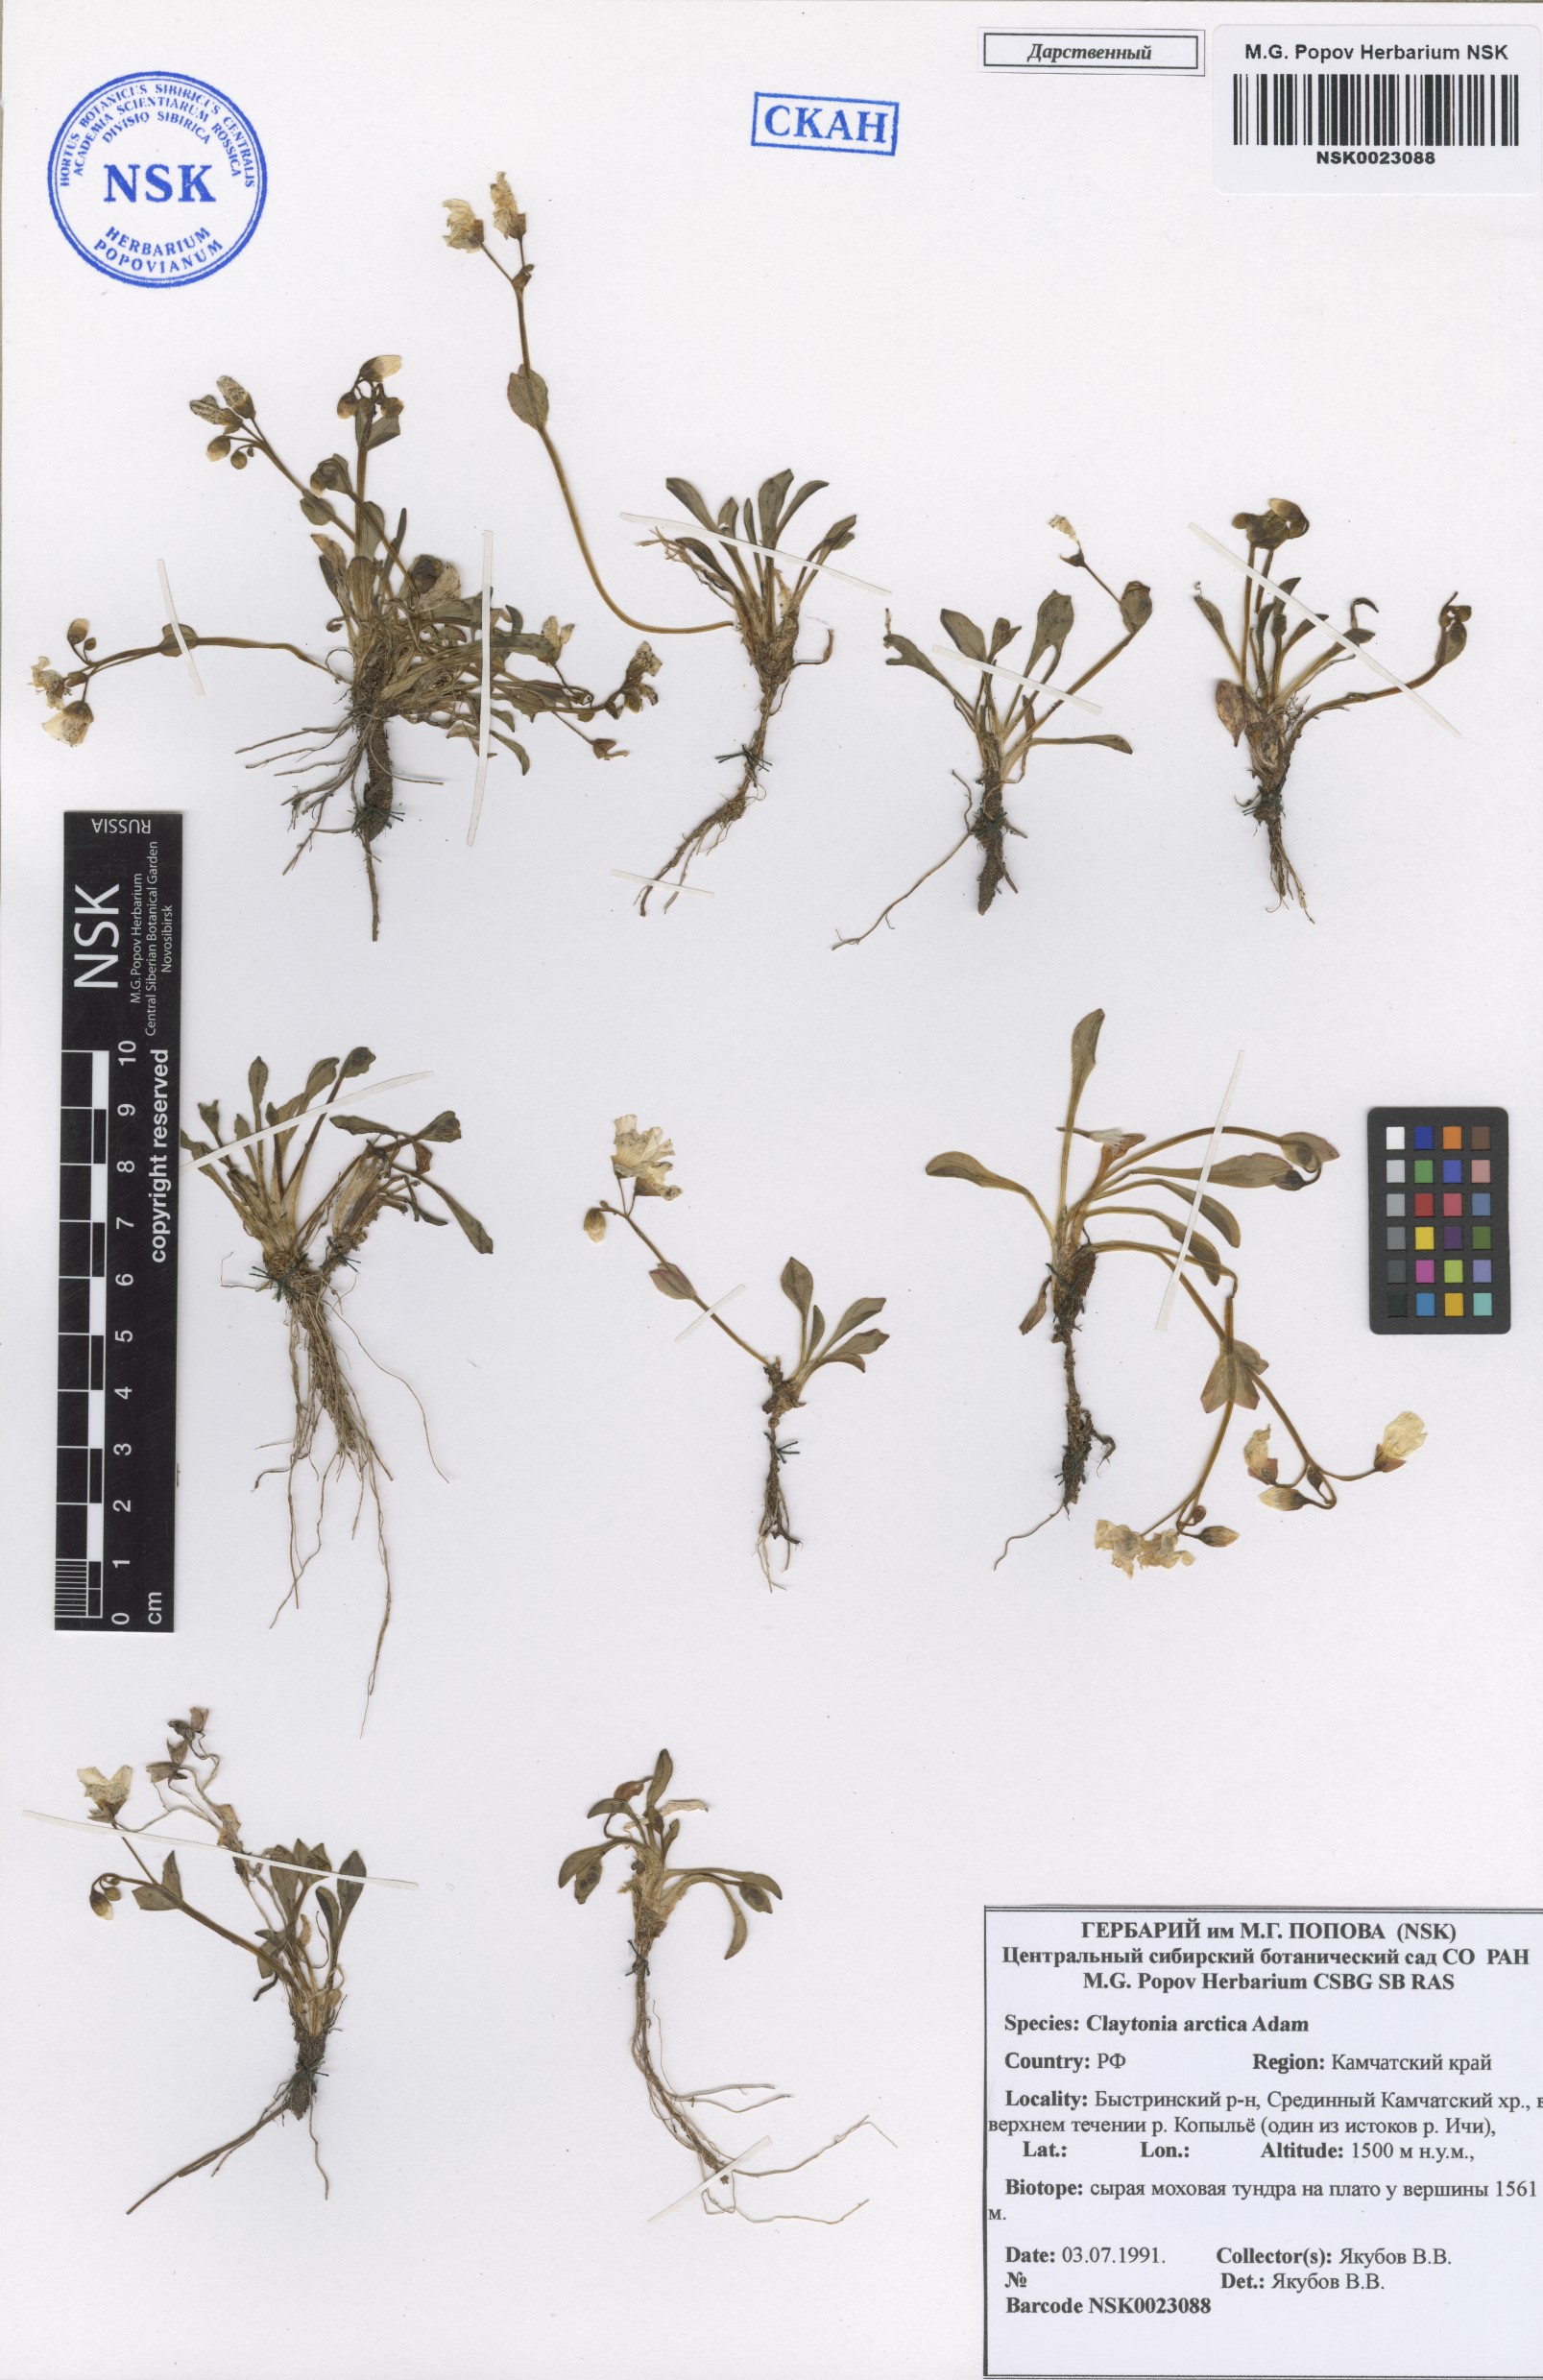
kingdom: Plantae
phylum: Tracheophyta
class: Magnoliopsida
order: Caryophyllales
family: Montiaceae
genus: Claytonia
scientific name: Claytonia arctica
